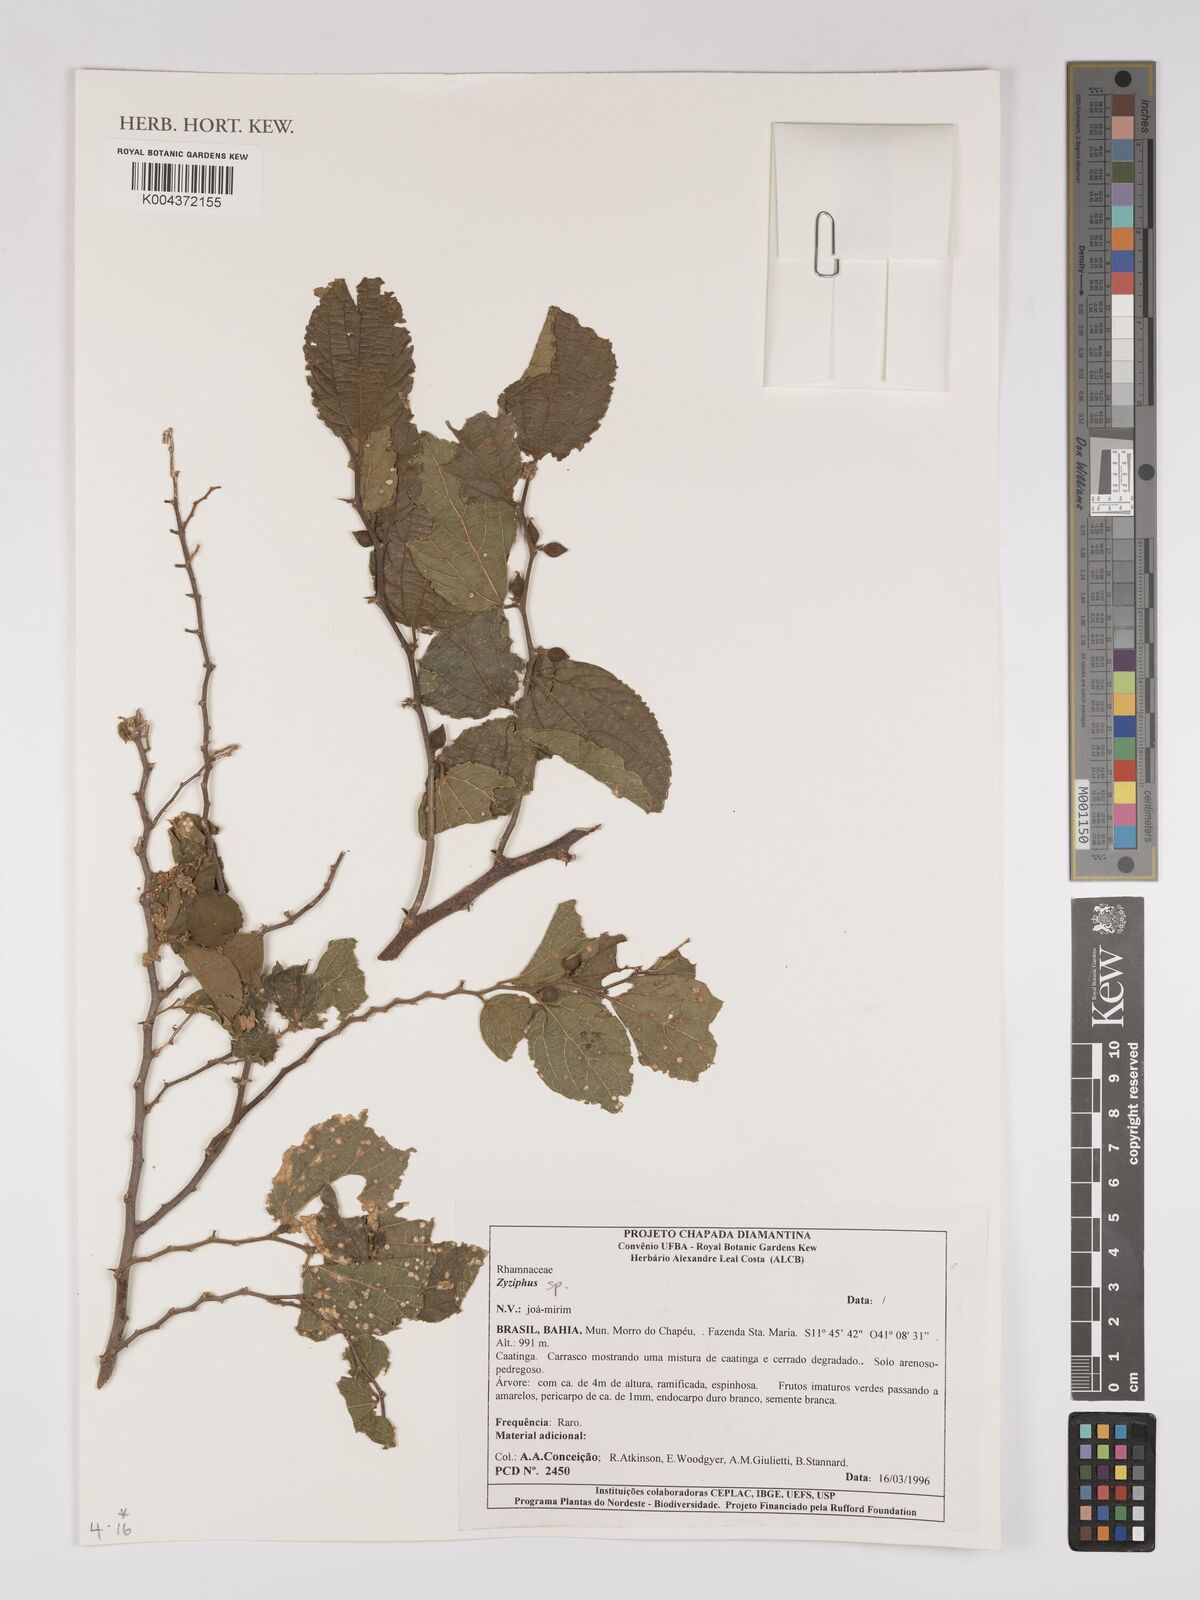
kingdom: Plantae
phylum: Tracheophyta
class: Magnoliopsida
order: Rosales
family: Rhamnaceae
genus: Ziziphus
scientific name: Ziziphus
